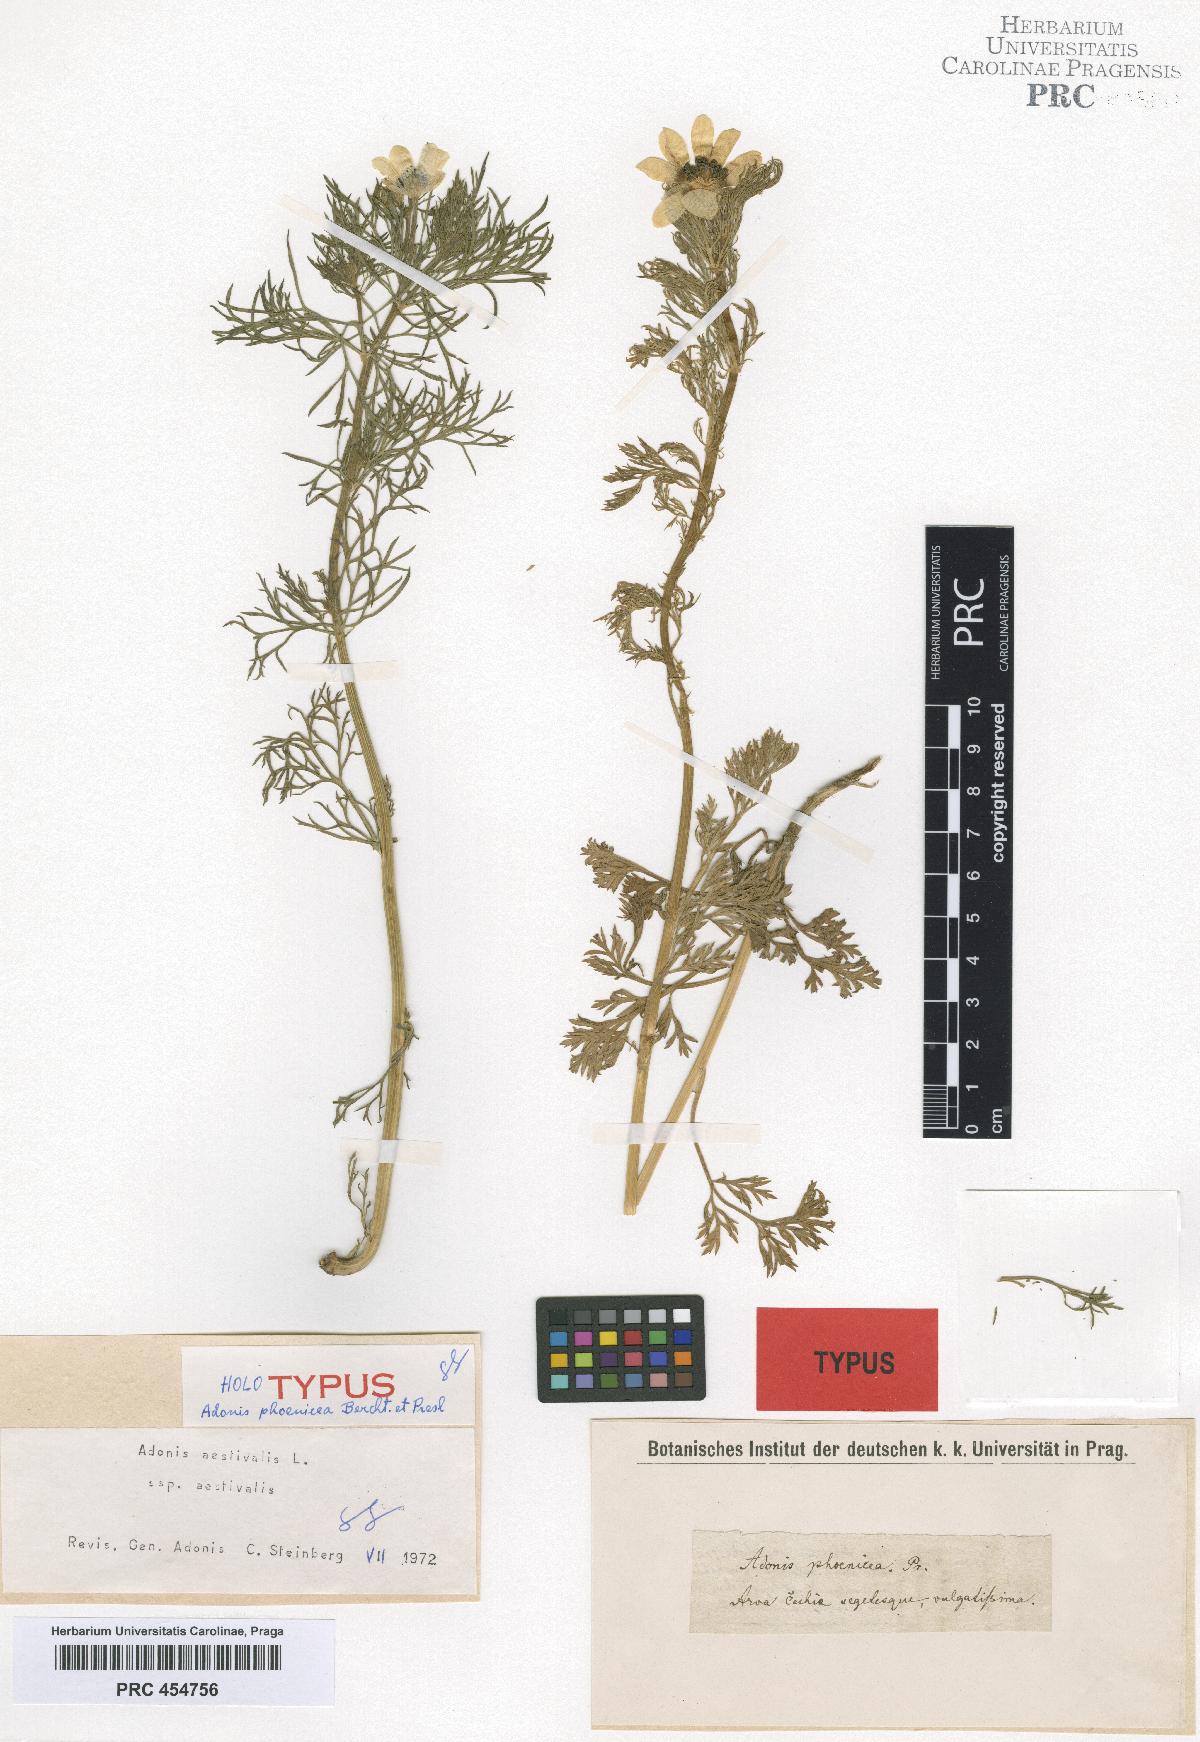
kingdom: Plantae
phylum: Tracheophyta
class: Magnoliopsida
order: Ranunculales
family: Ranunculaceae
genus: Adonis
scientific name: Adonis annua
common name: Pheasant's-eye
